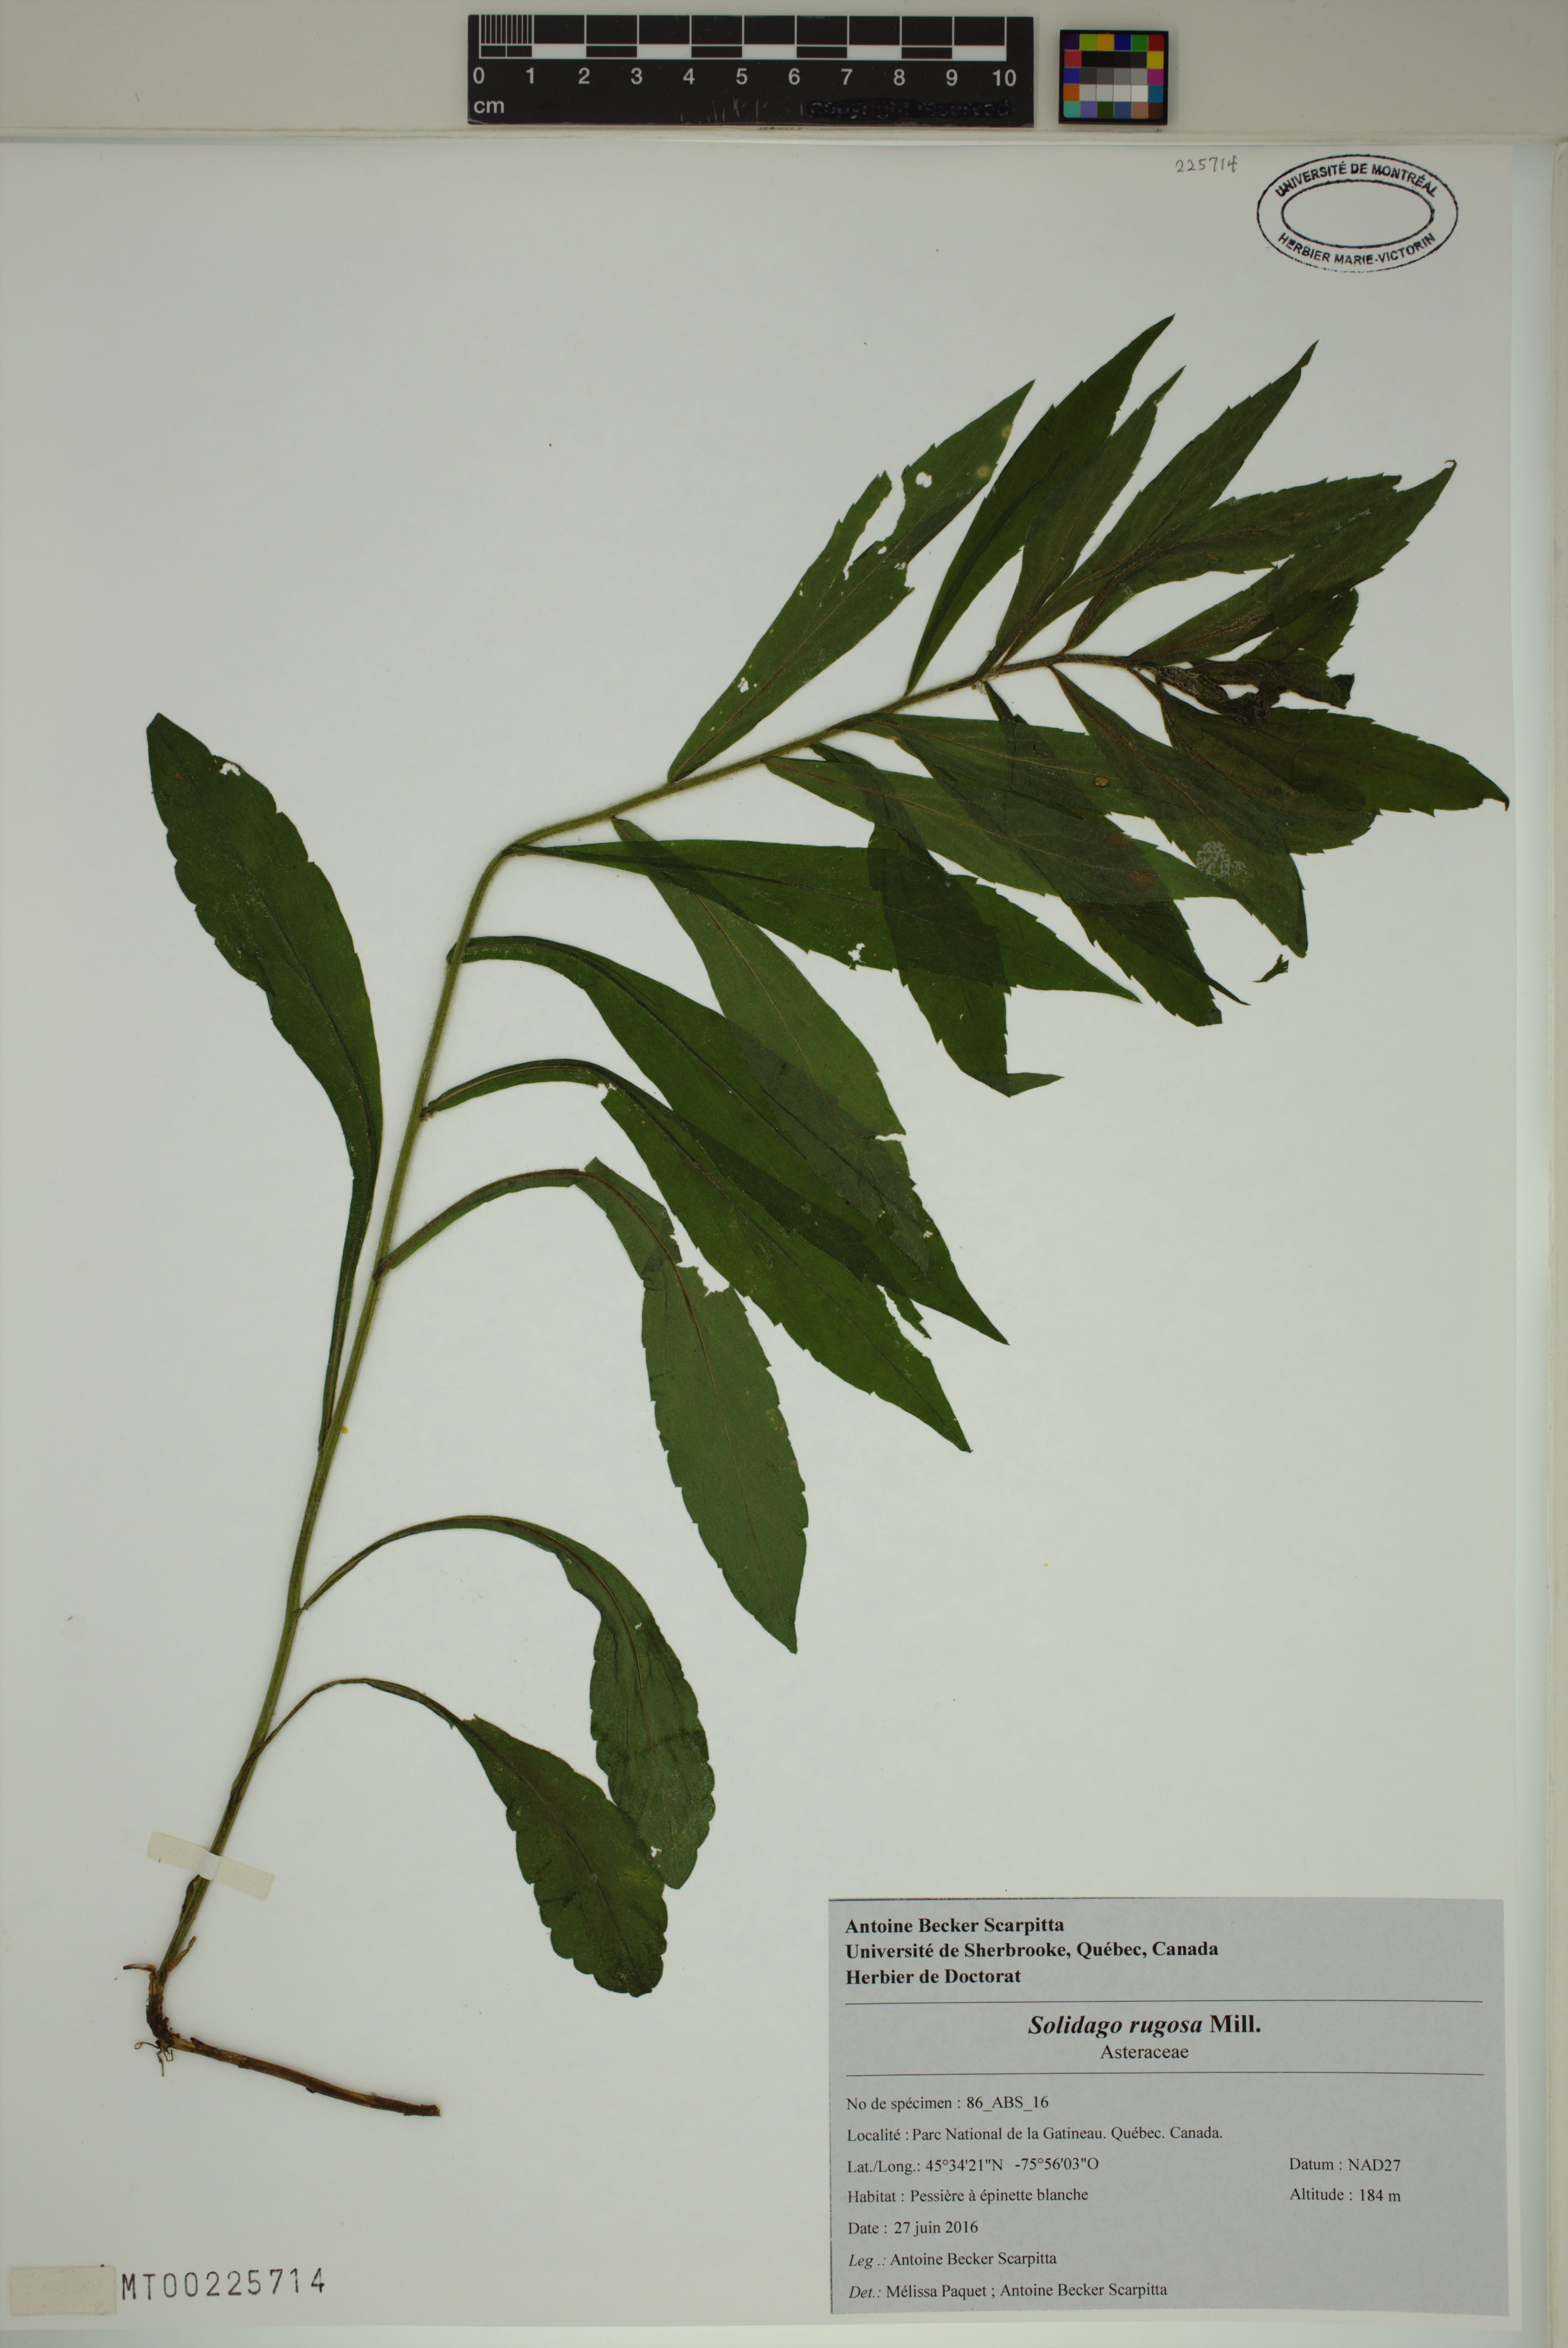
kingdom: Plantae
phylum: Tracheophyta
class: Magnoliopsida
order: Asterales
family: Asteraceae
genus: Solidago
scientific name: Solidago rugosa
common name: Rough-stemmed goldenrod
